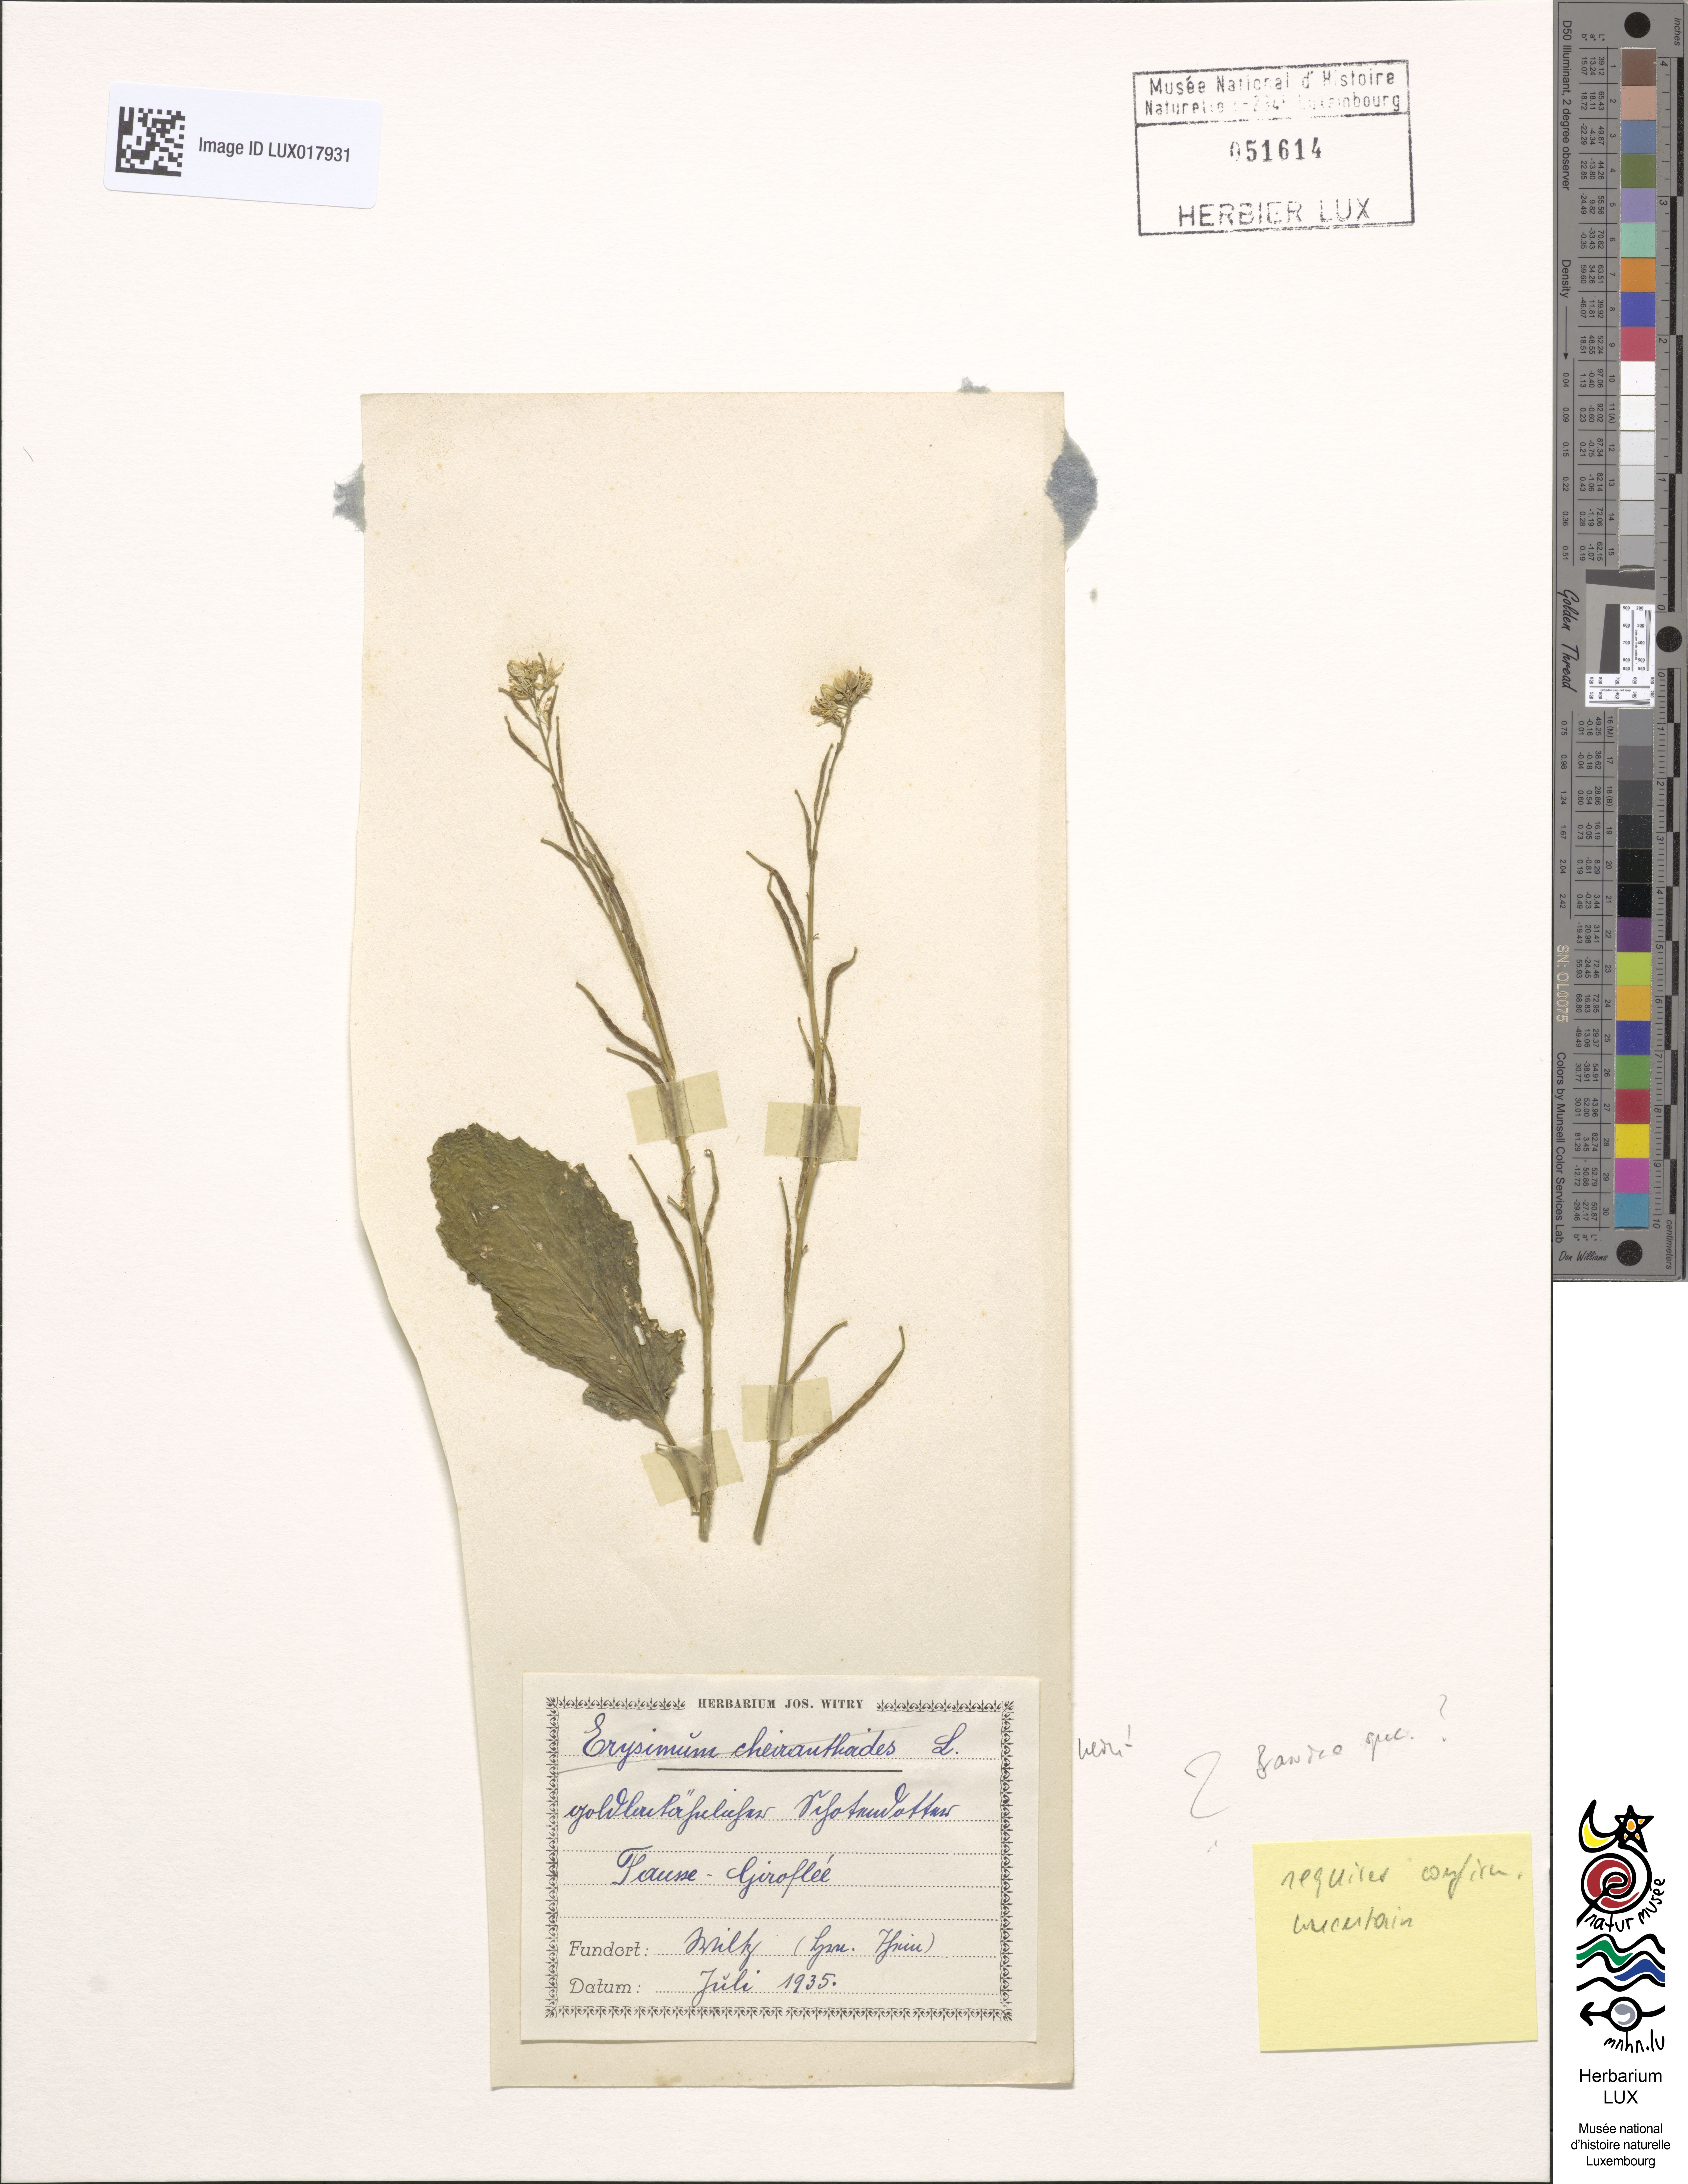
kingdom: Plantae
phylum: Tracheophyta
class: Magnoliopsida
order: Brassicales
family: Brassicaceae
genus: Brassica
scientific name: Brassica
